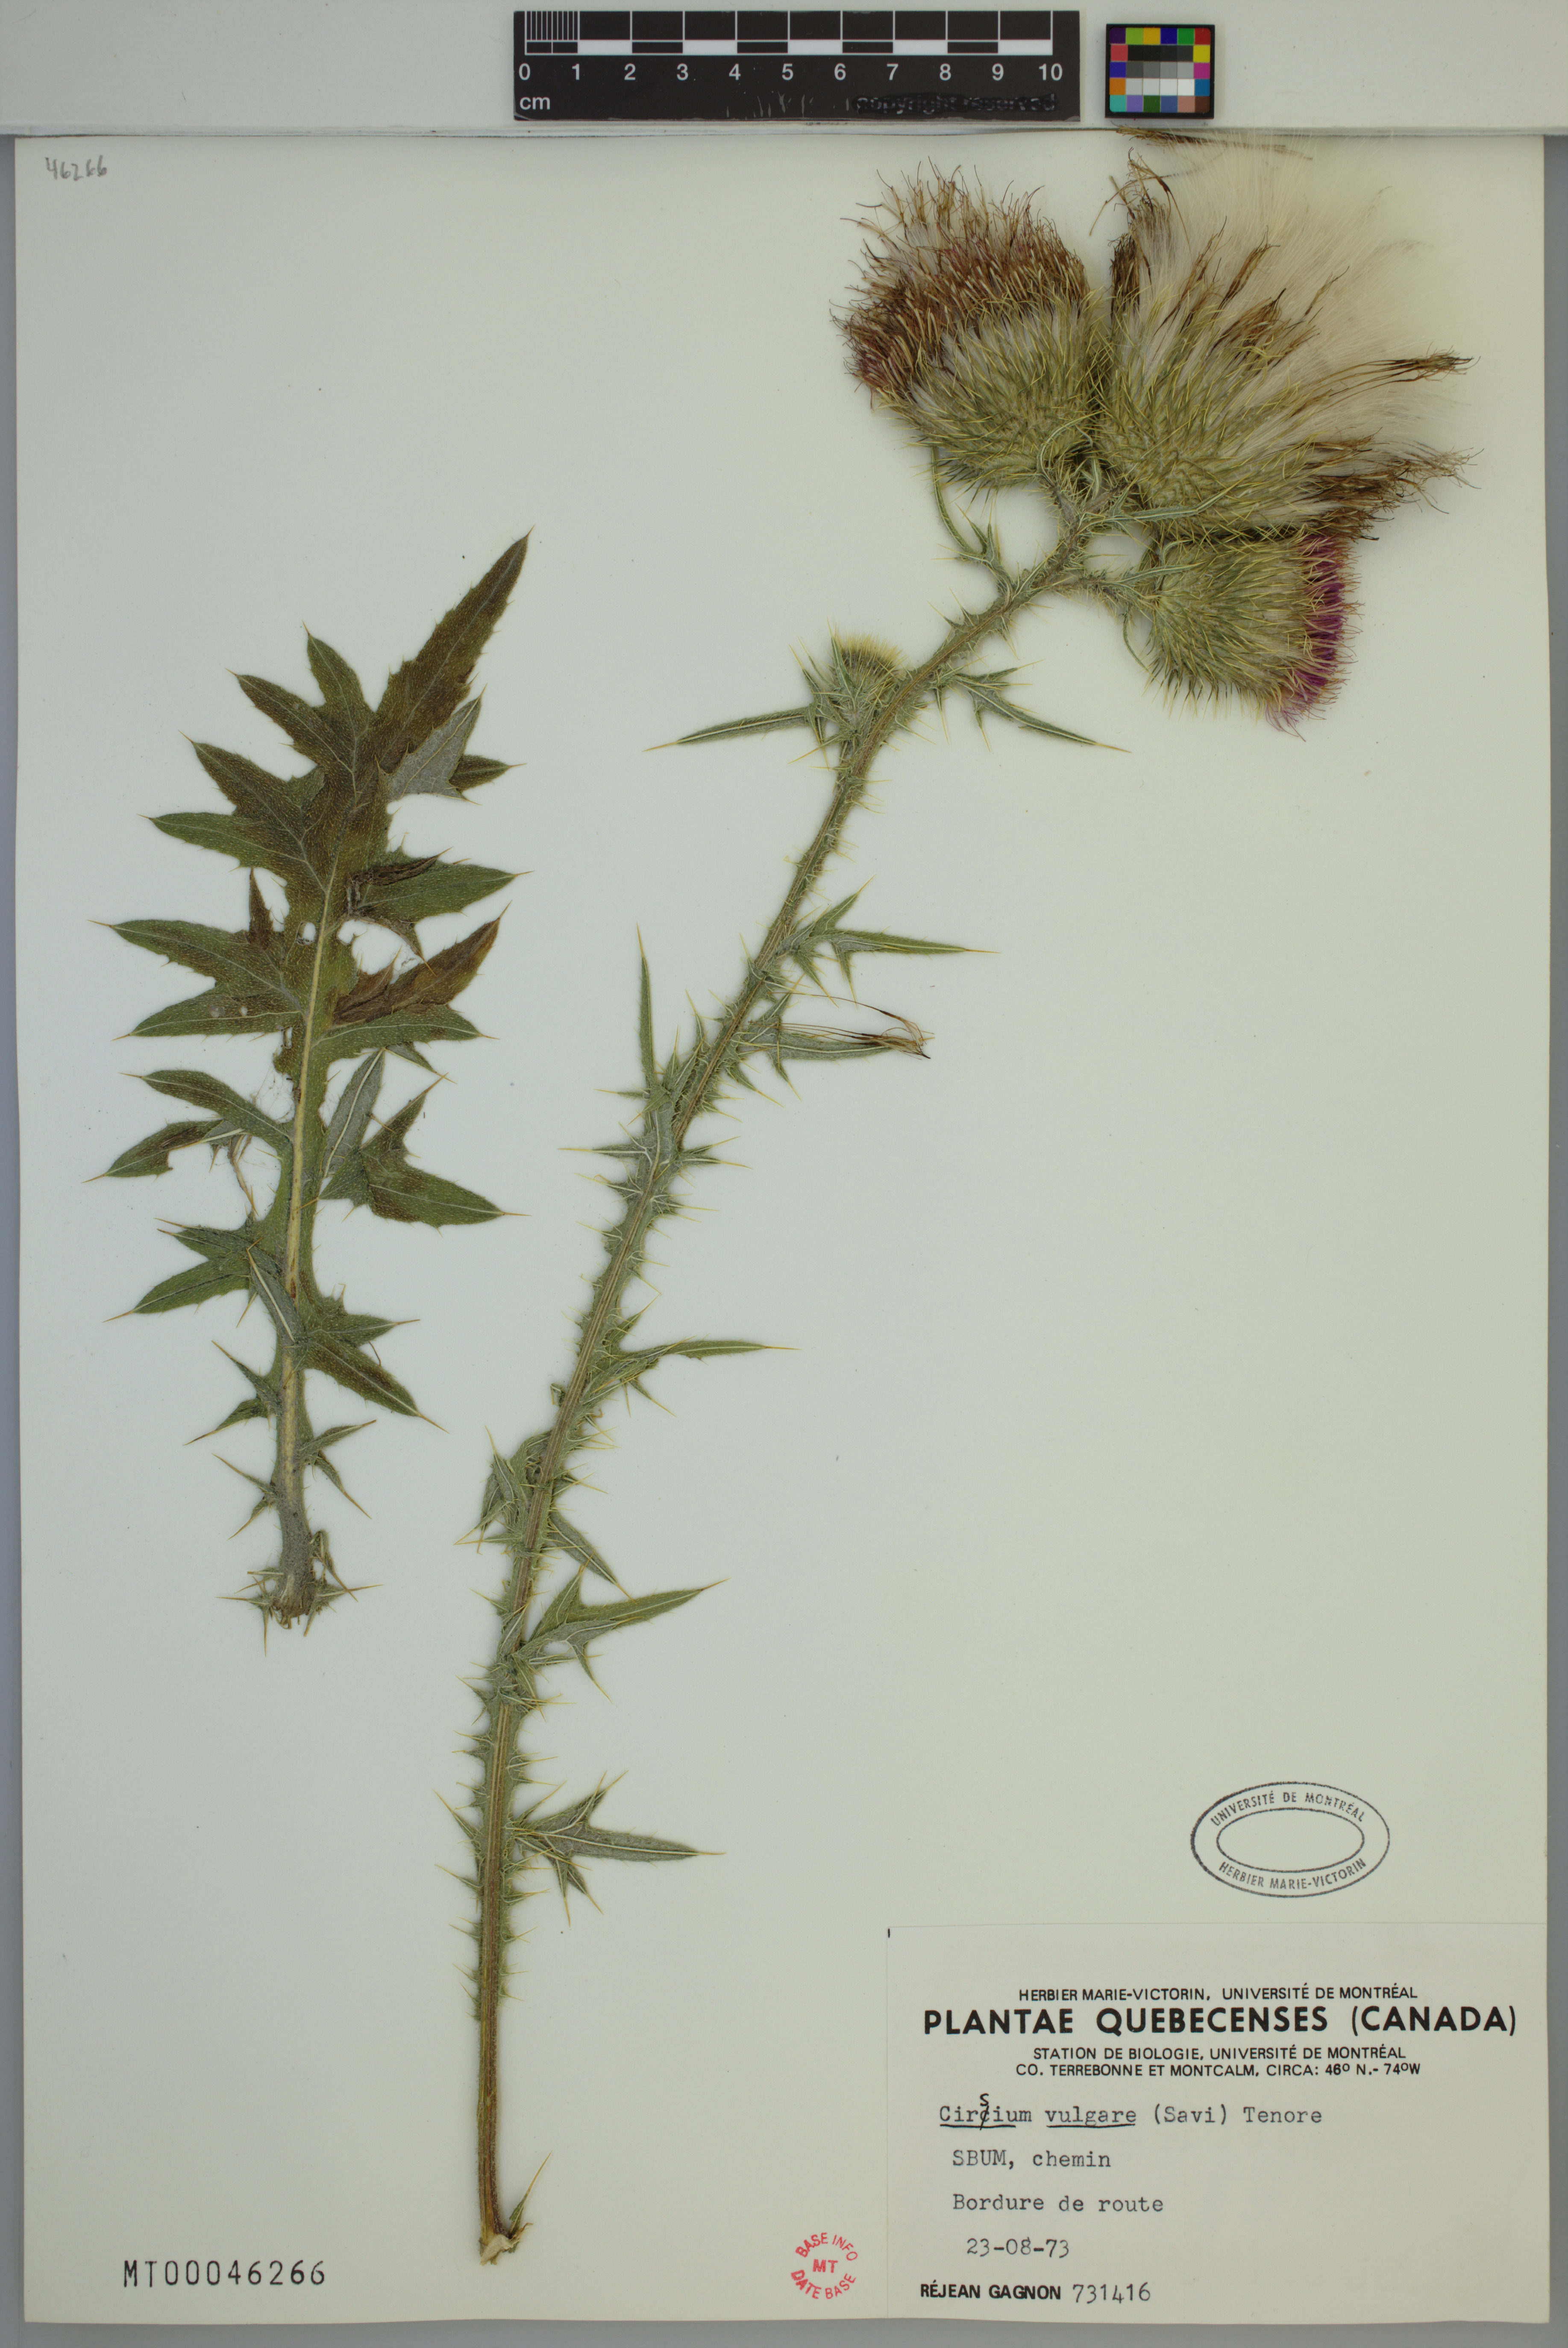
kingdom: Plantae
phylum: Tracheophyta
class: Magnoliopsida
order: Asterales
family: Asteraceae
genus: Cirsium
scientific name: Cirsium vulgare
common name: Bull thistle
